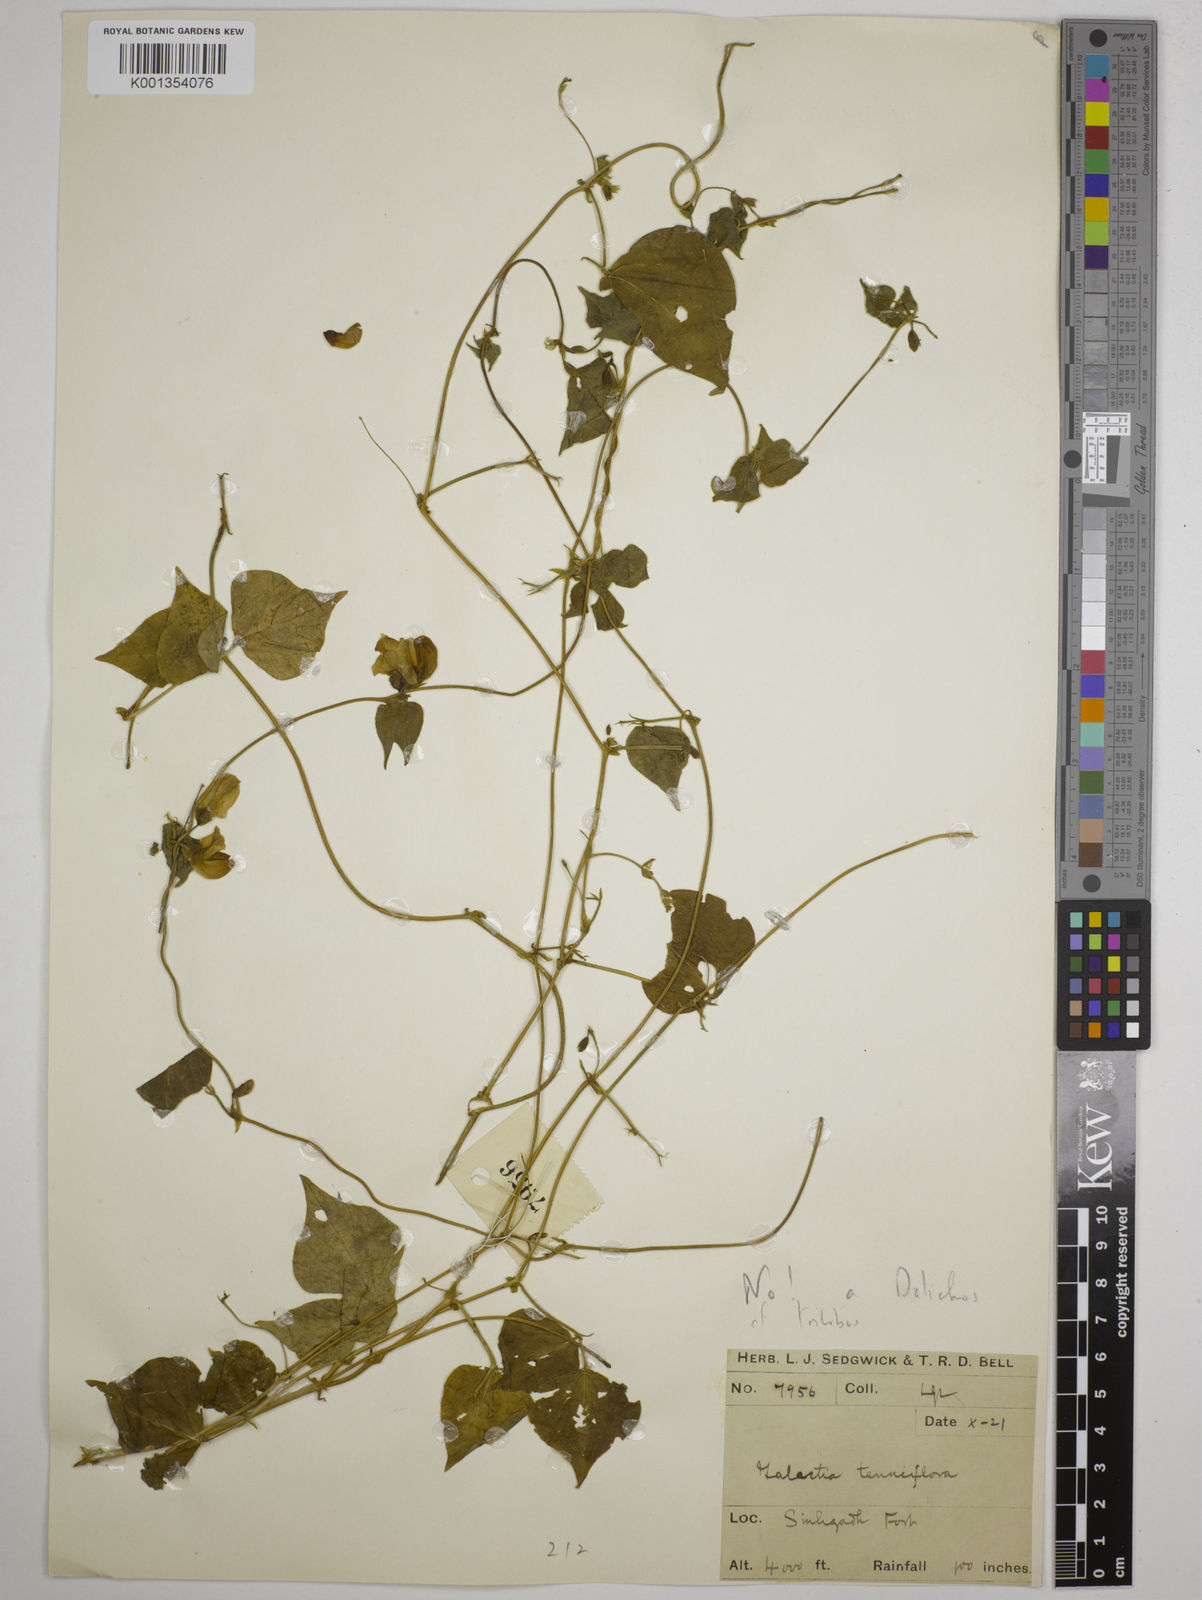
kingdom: Plantae
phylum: Tracheophyta
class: Magnoliopsida
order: Fabales
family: Fabaceae
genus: Dolichos
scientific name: Dolichos
